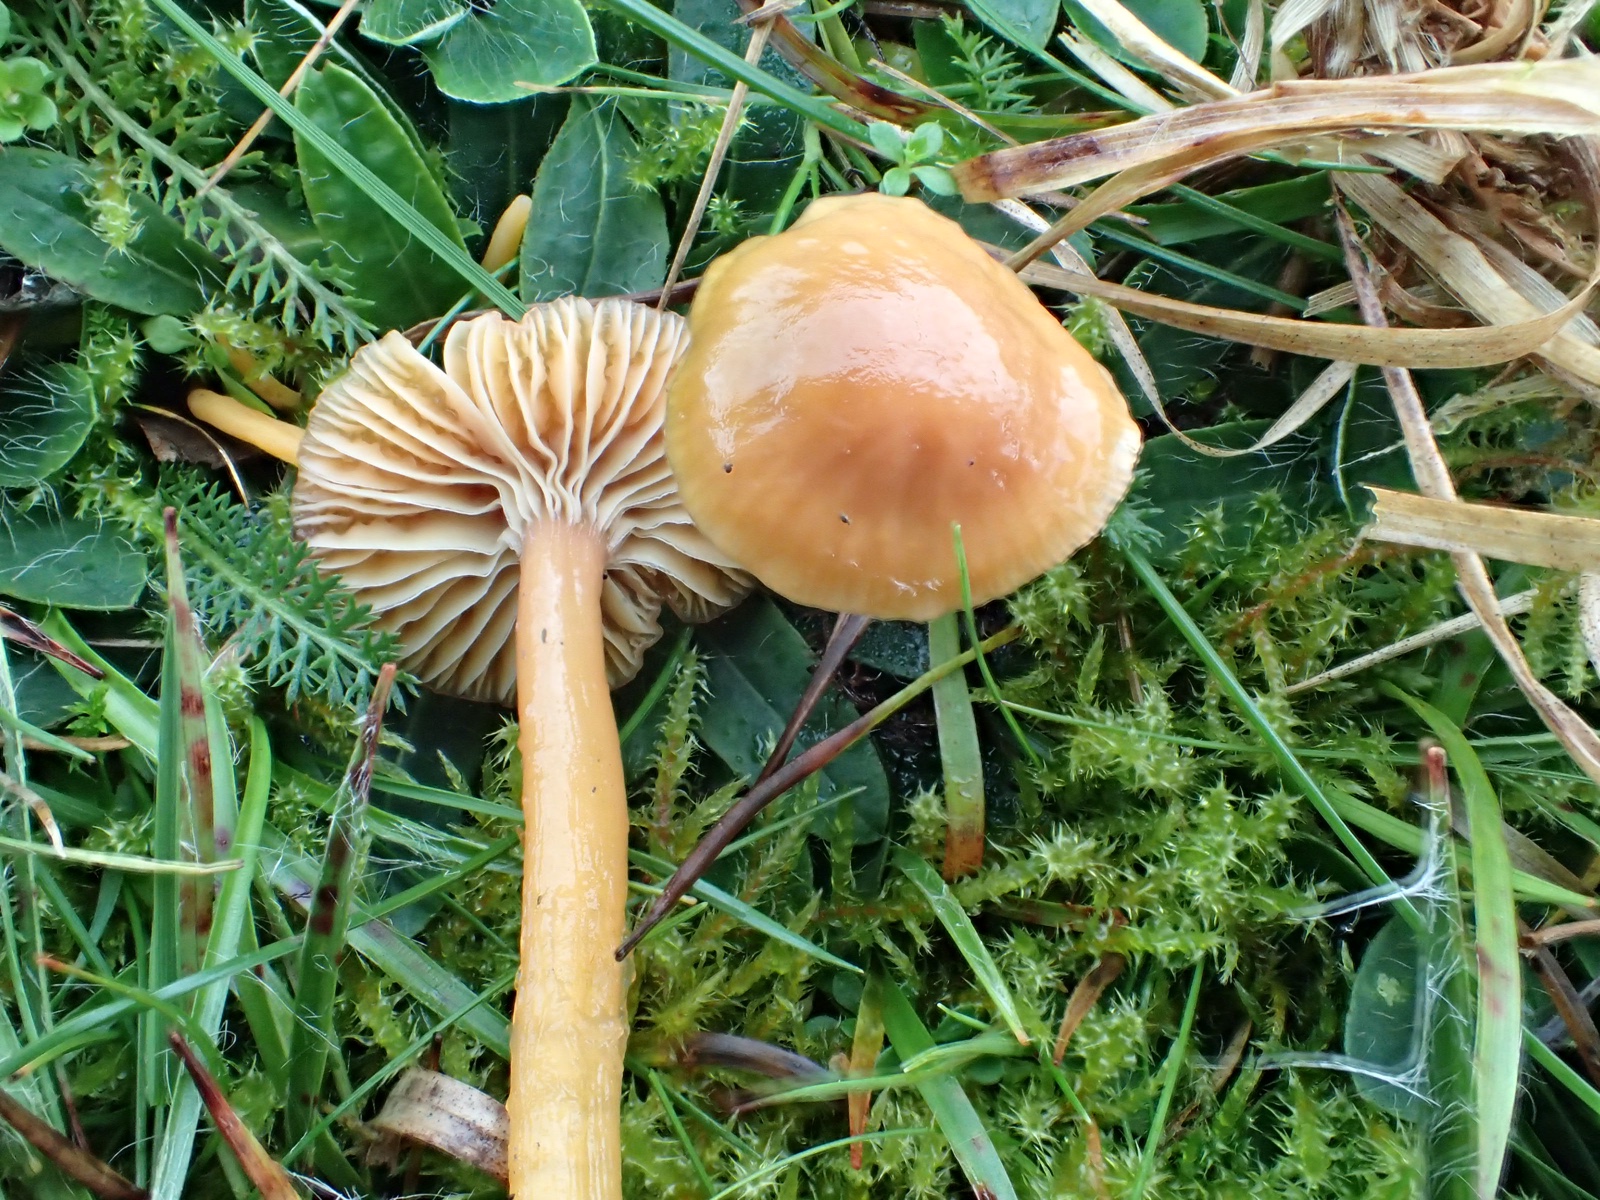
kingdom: Fungi
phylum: Basidiomycota
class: Agaricomycetes
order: Agaricales
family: Hygrophoraceae
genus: Gliophorus
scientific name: Gliophorus laetus
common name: brusk-vokshat
